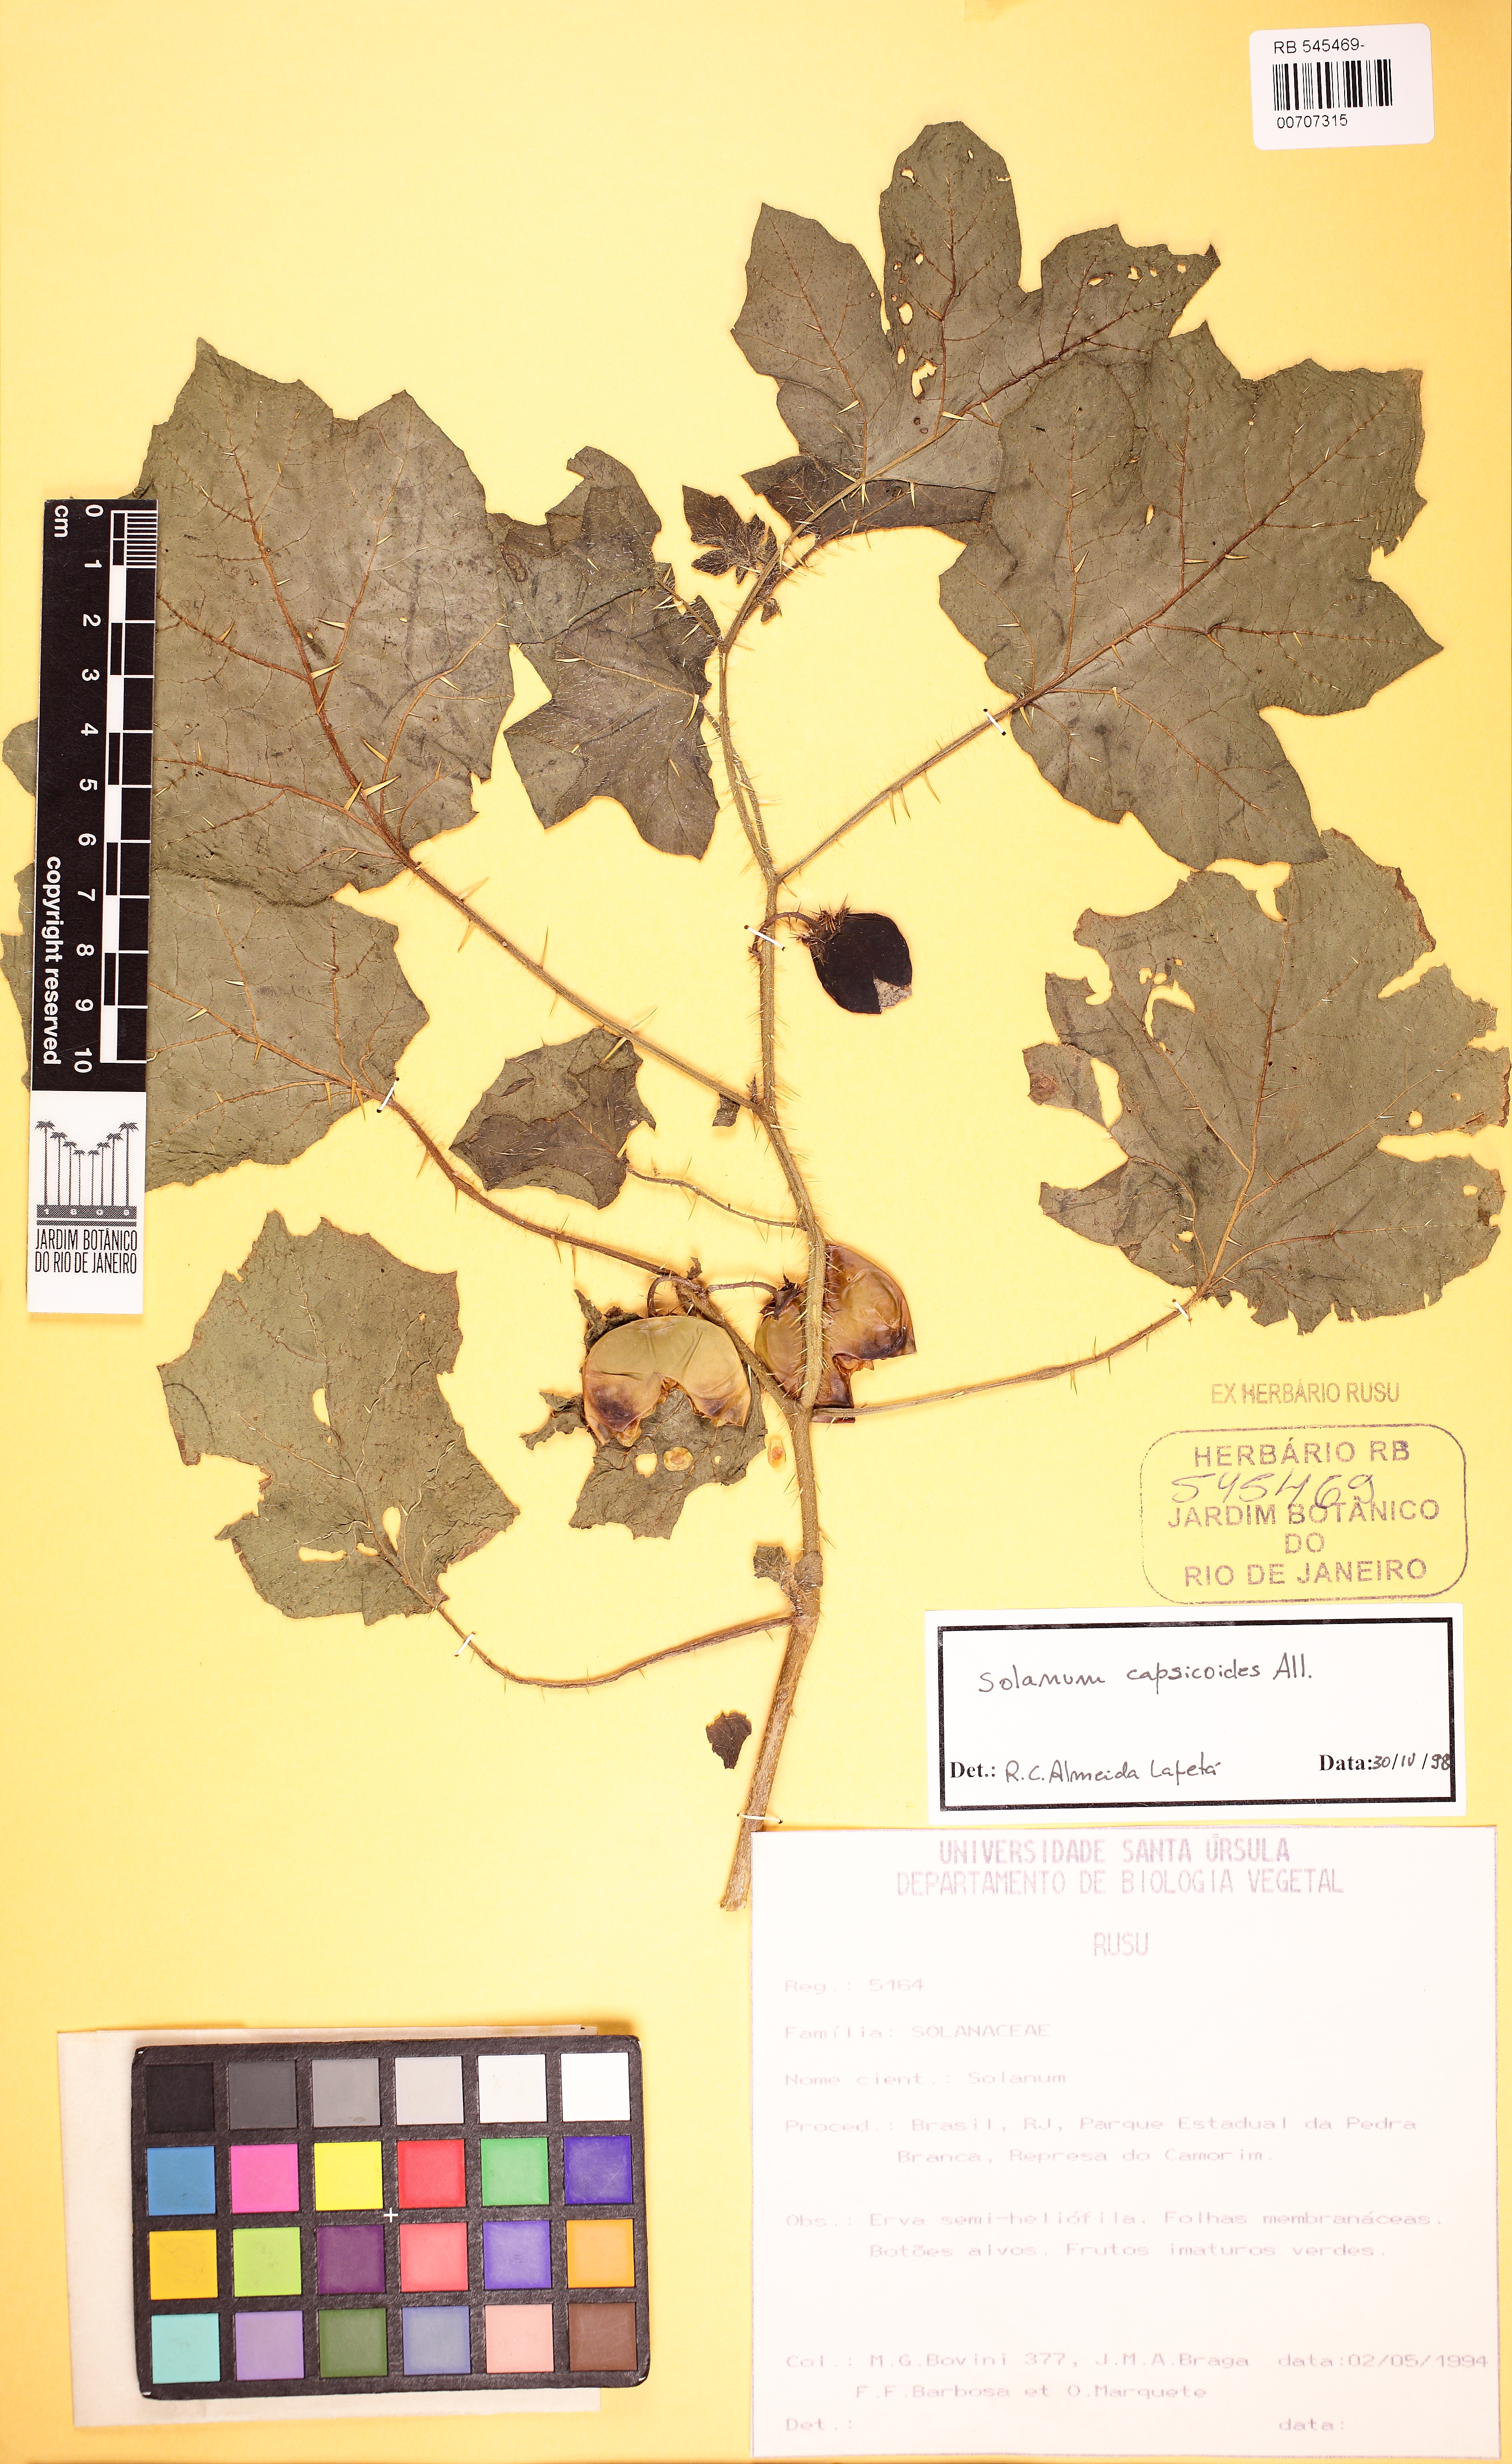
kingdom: Plantae
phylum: Tracheophyta
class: Magnoliopsida
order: Solanales
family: Solanaceae
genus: Solanum
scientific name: Solanum capsicoides
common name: Cockroach berry
